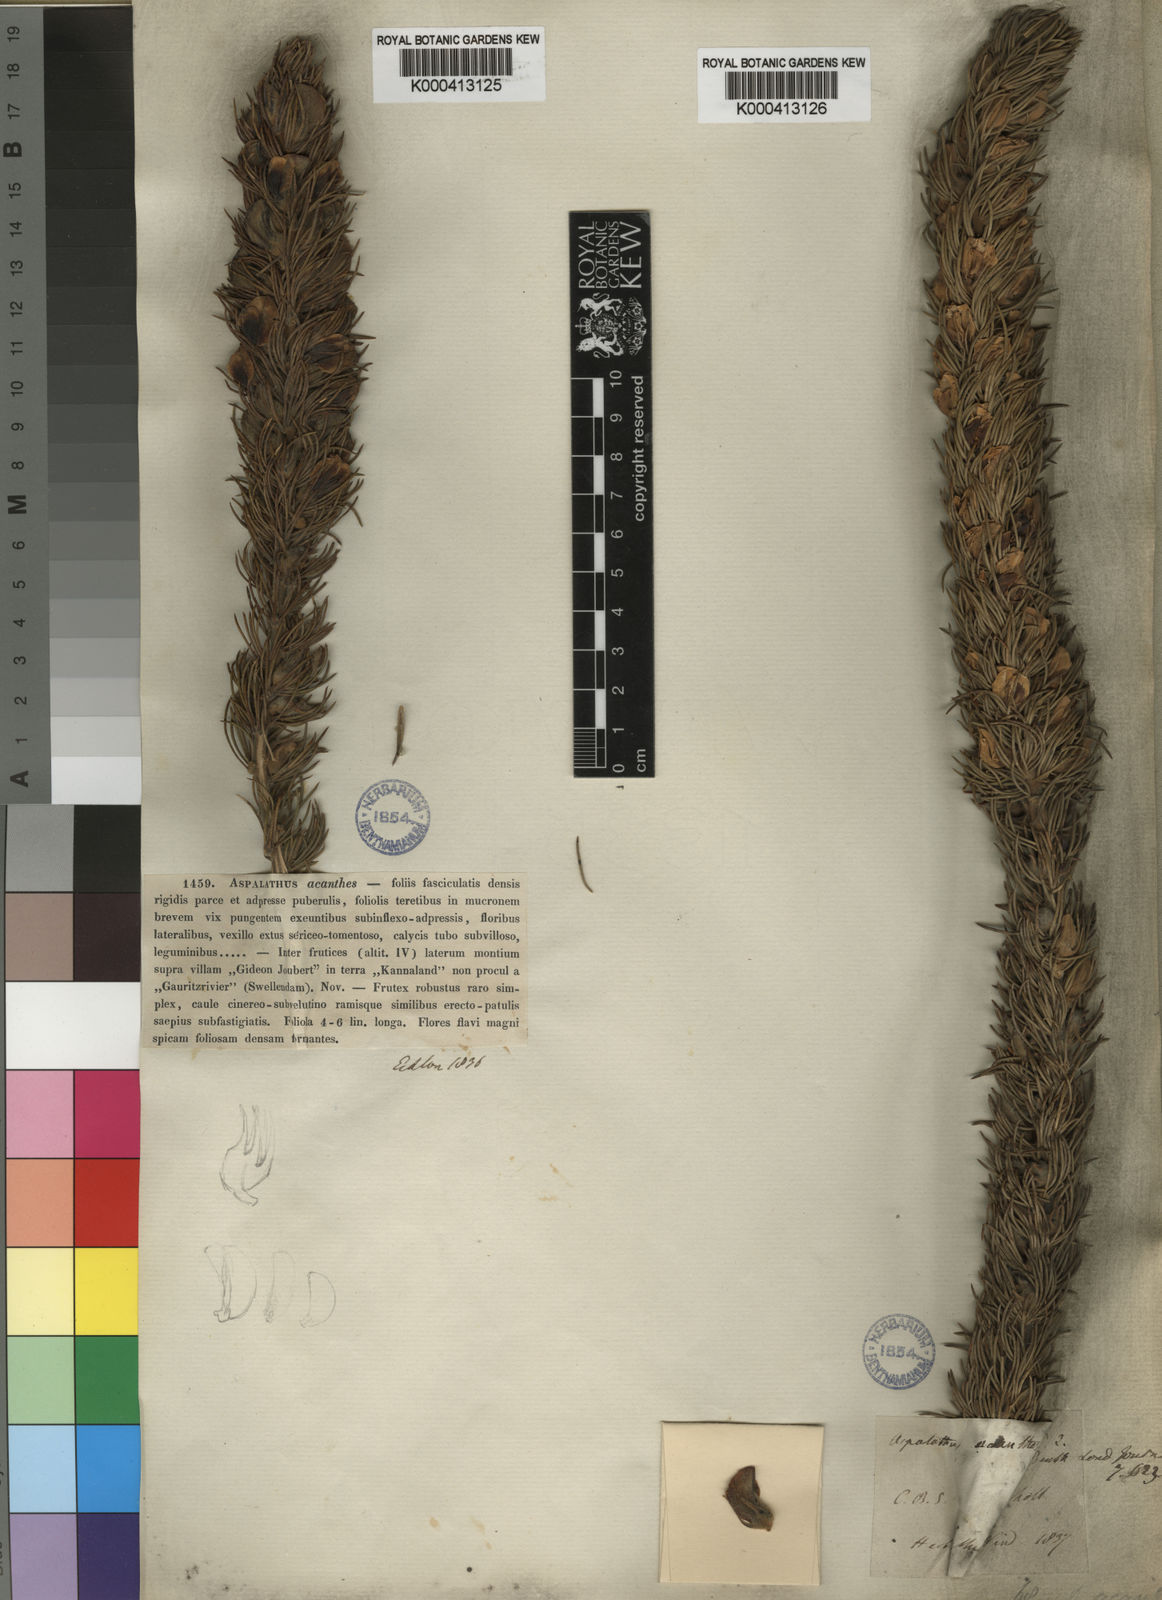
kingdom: Plantae
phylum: Tracheophyta
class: Magnoliopsida
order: Fabales
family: Fabaceae
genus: Aspalathus
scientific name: Aspalathus acanthes
